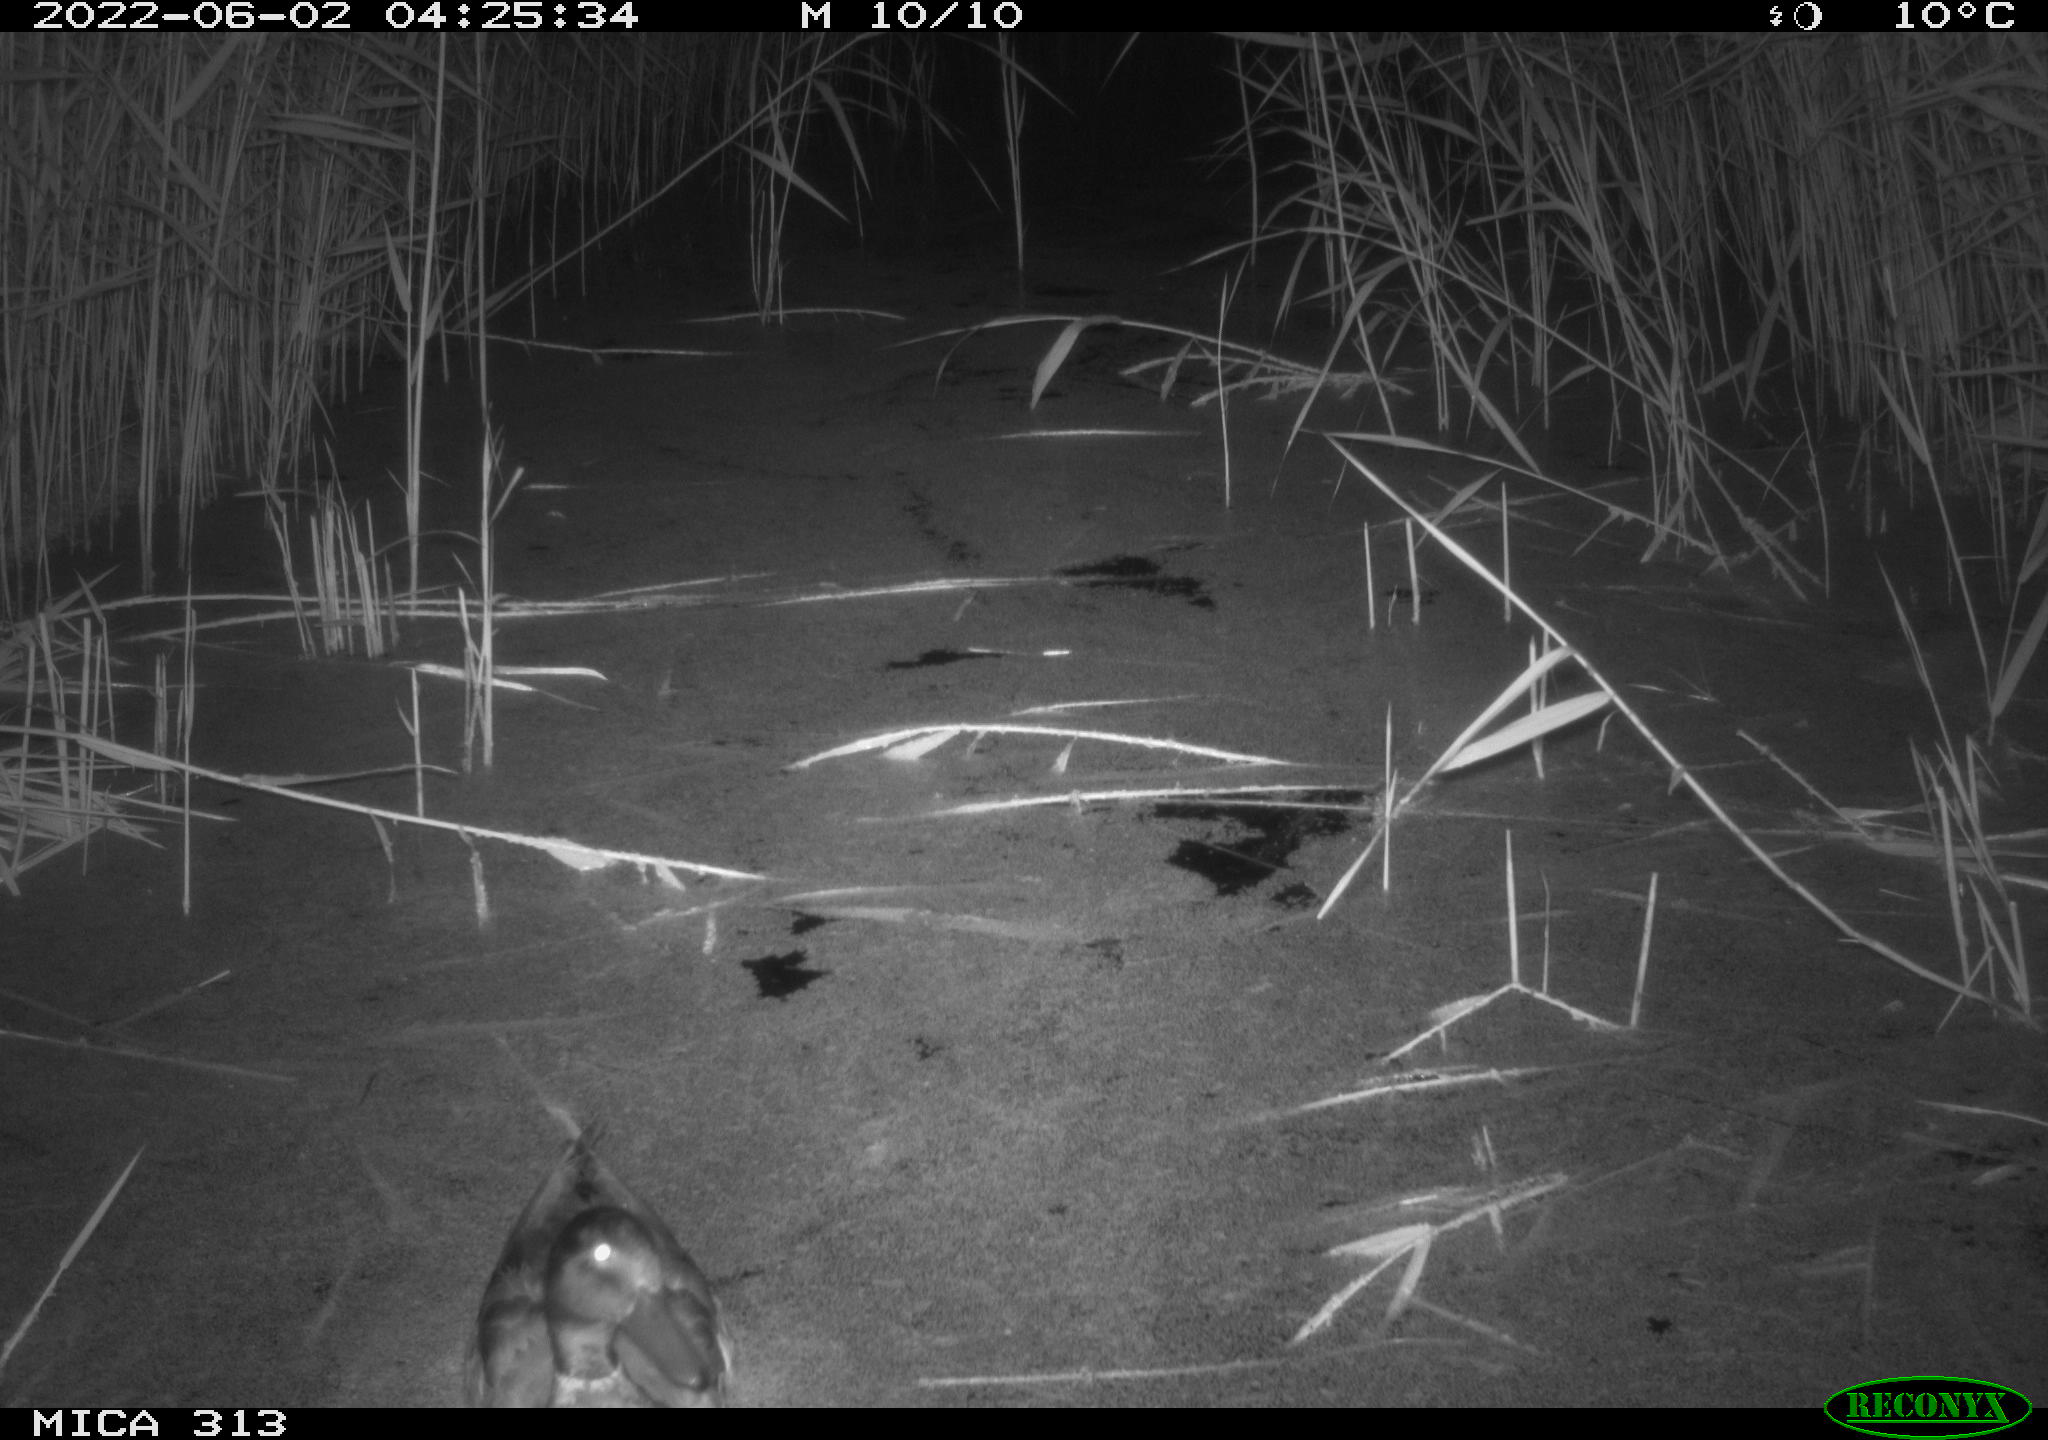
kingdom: Animalia
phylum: Chordata
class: Aves
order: Anseriformes
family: Anatidae
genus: Anas
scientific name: Anas platyrhynchos
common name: Mallard
